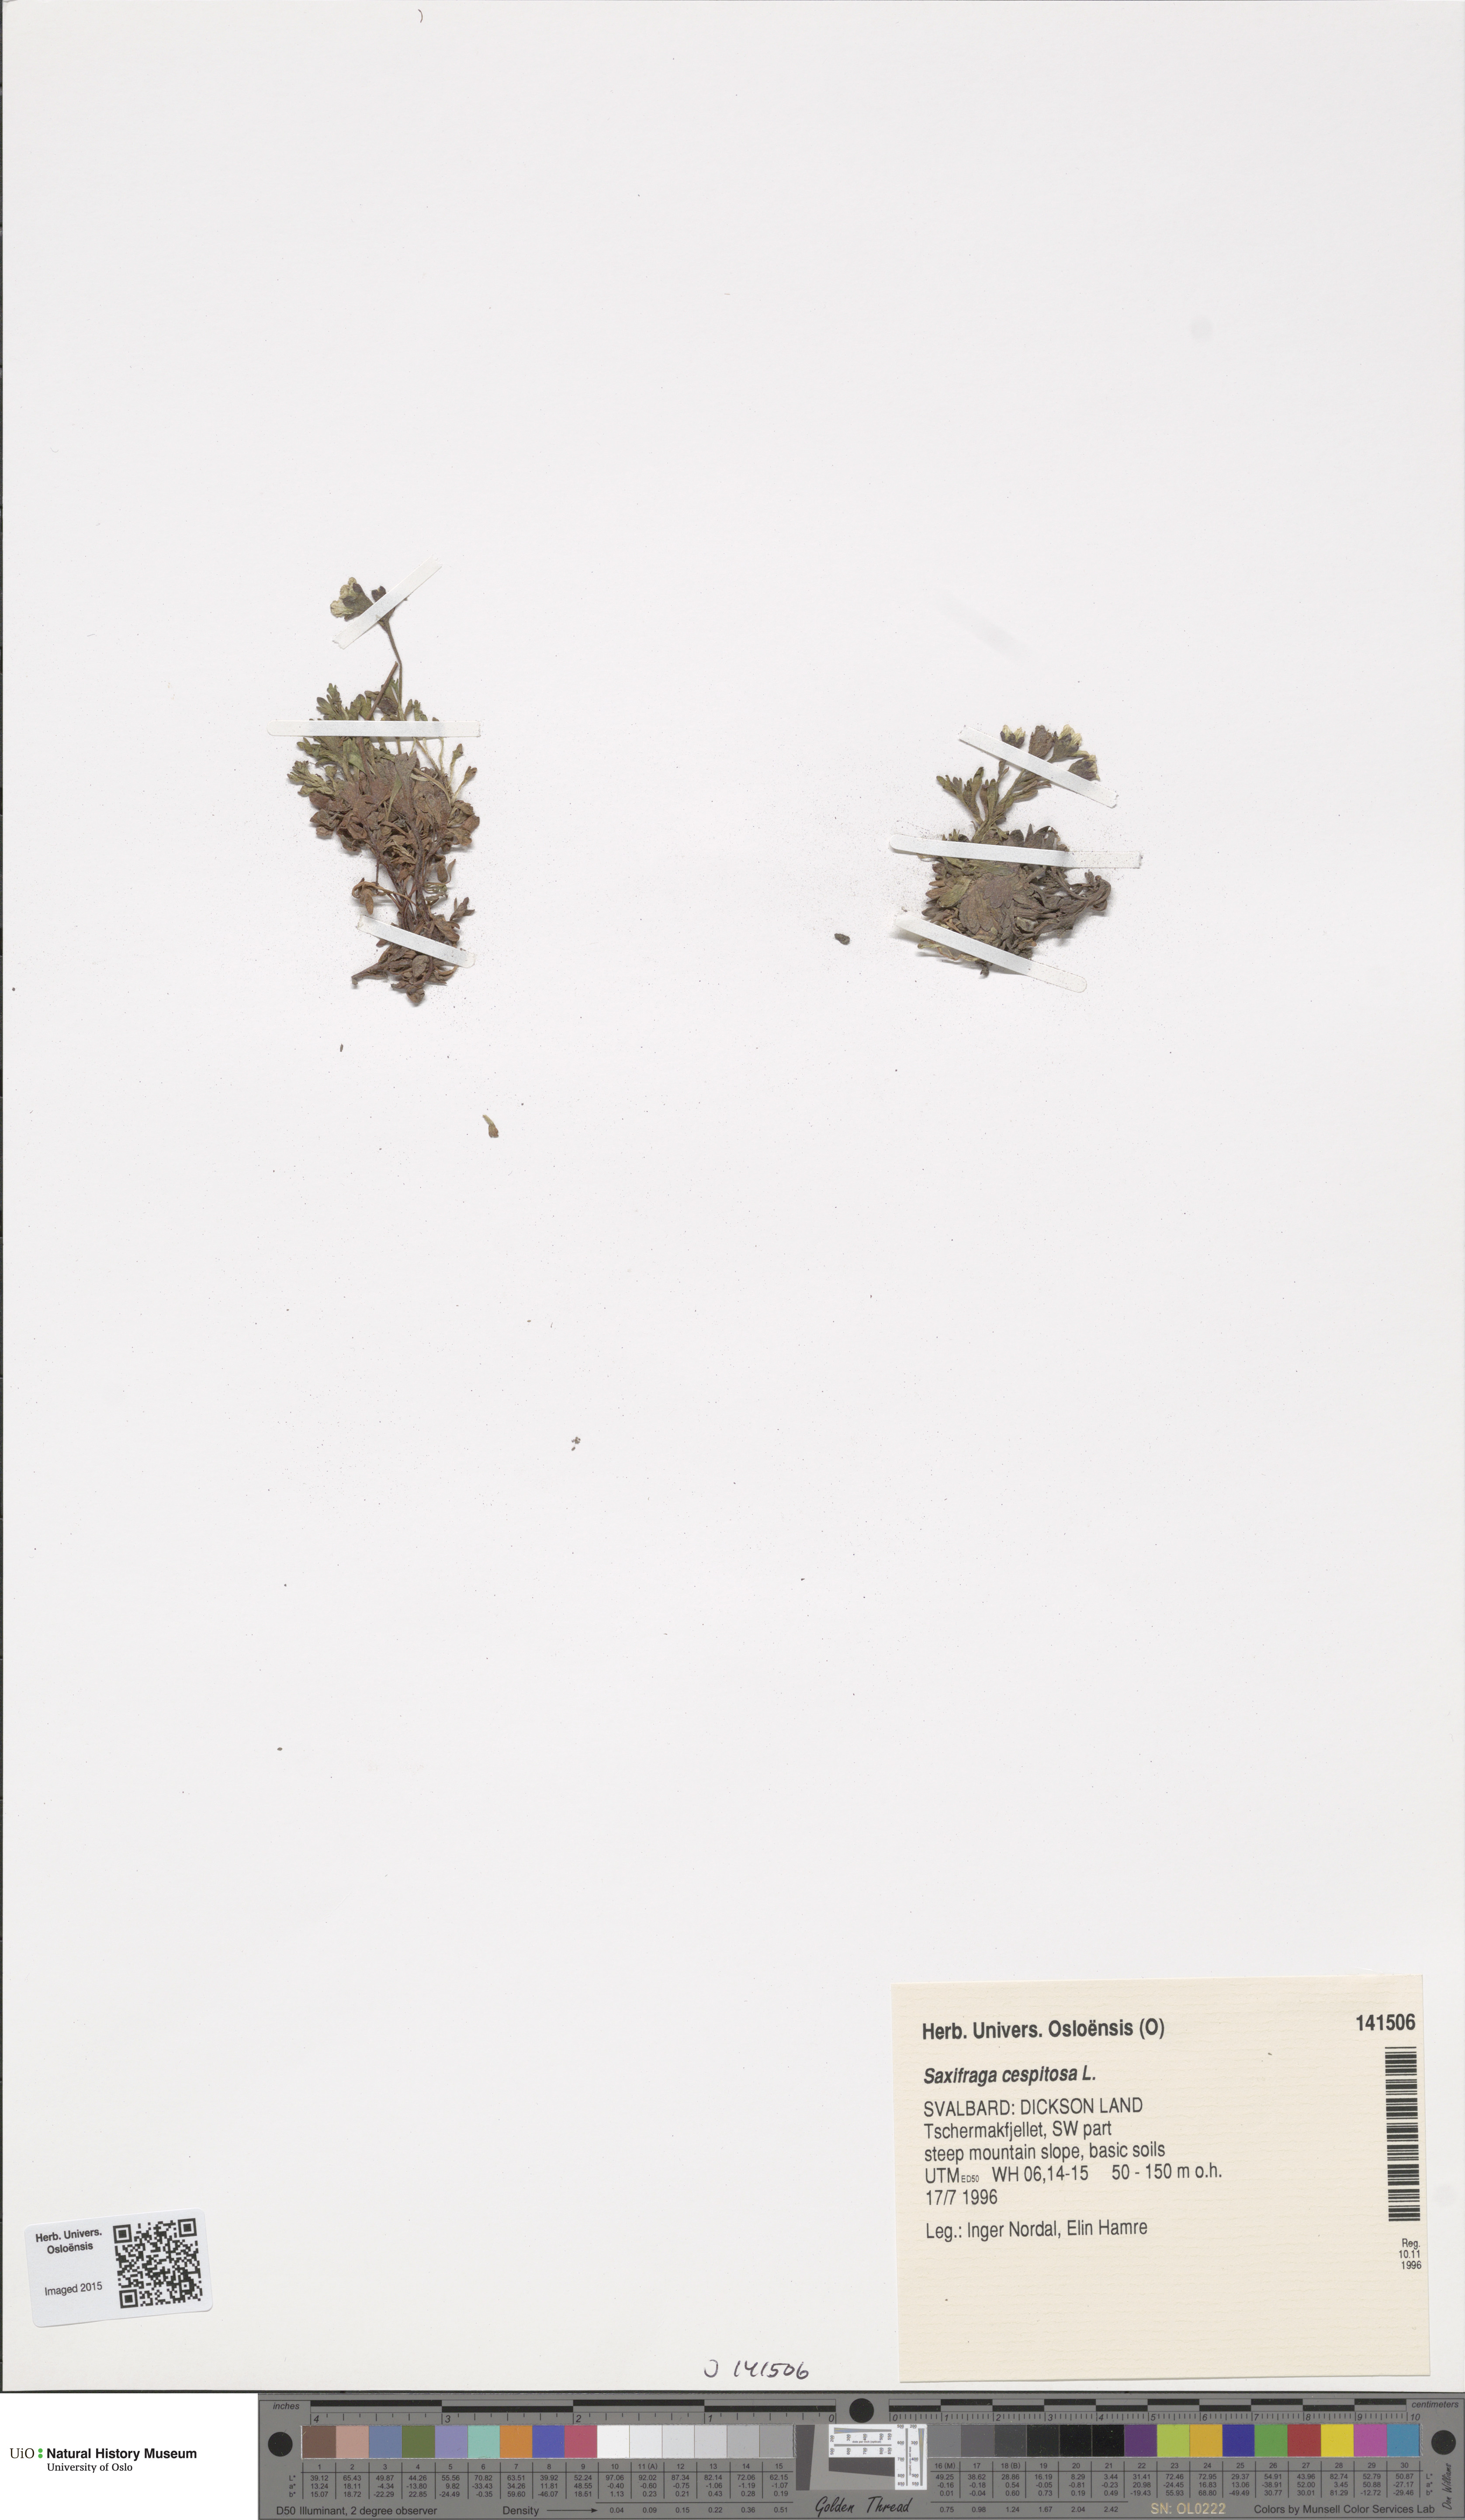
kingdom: Plantae
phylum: Tracheophyta
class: Magnoliopsida
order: Saxifragales
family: Saxifragaceae
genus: Saxifraga
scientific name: Saxifraga cespitosa
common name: Tufted saxifrage
